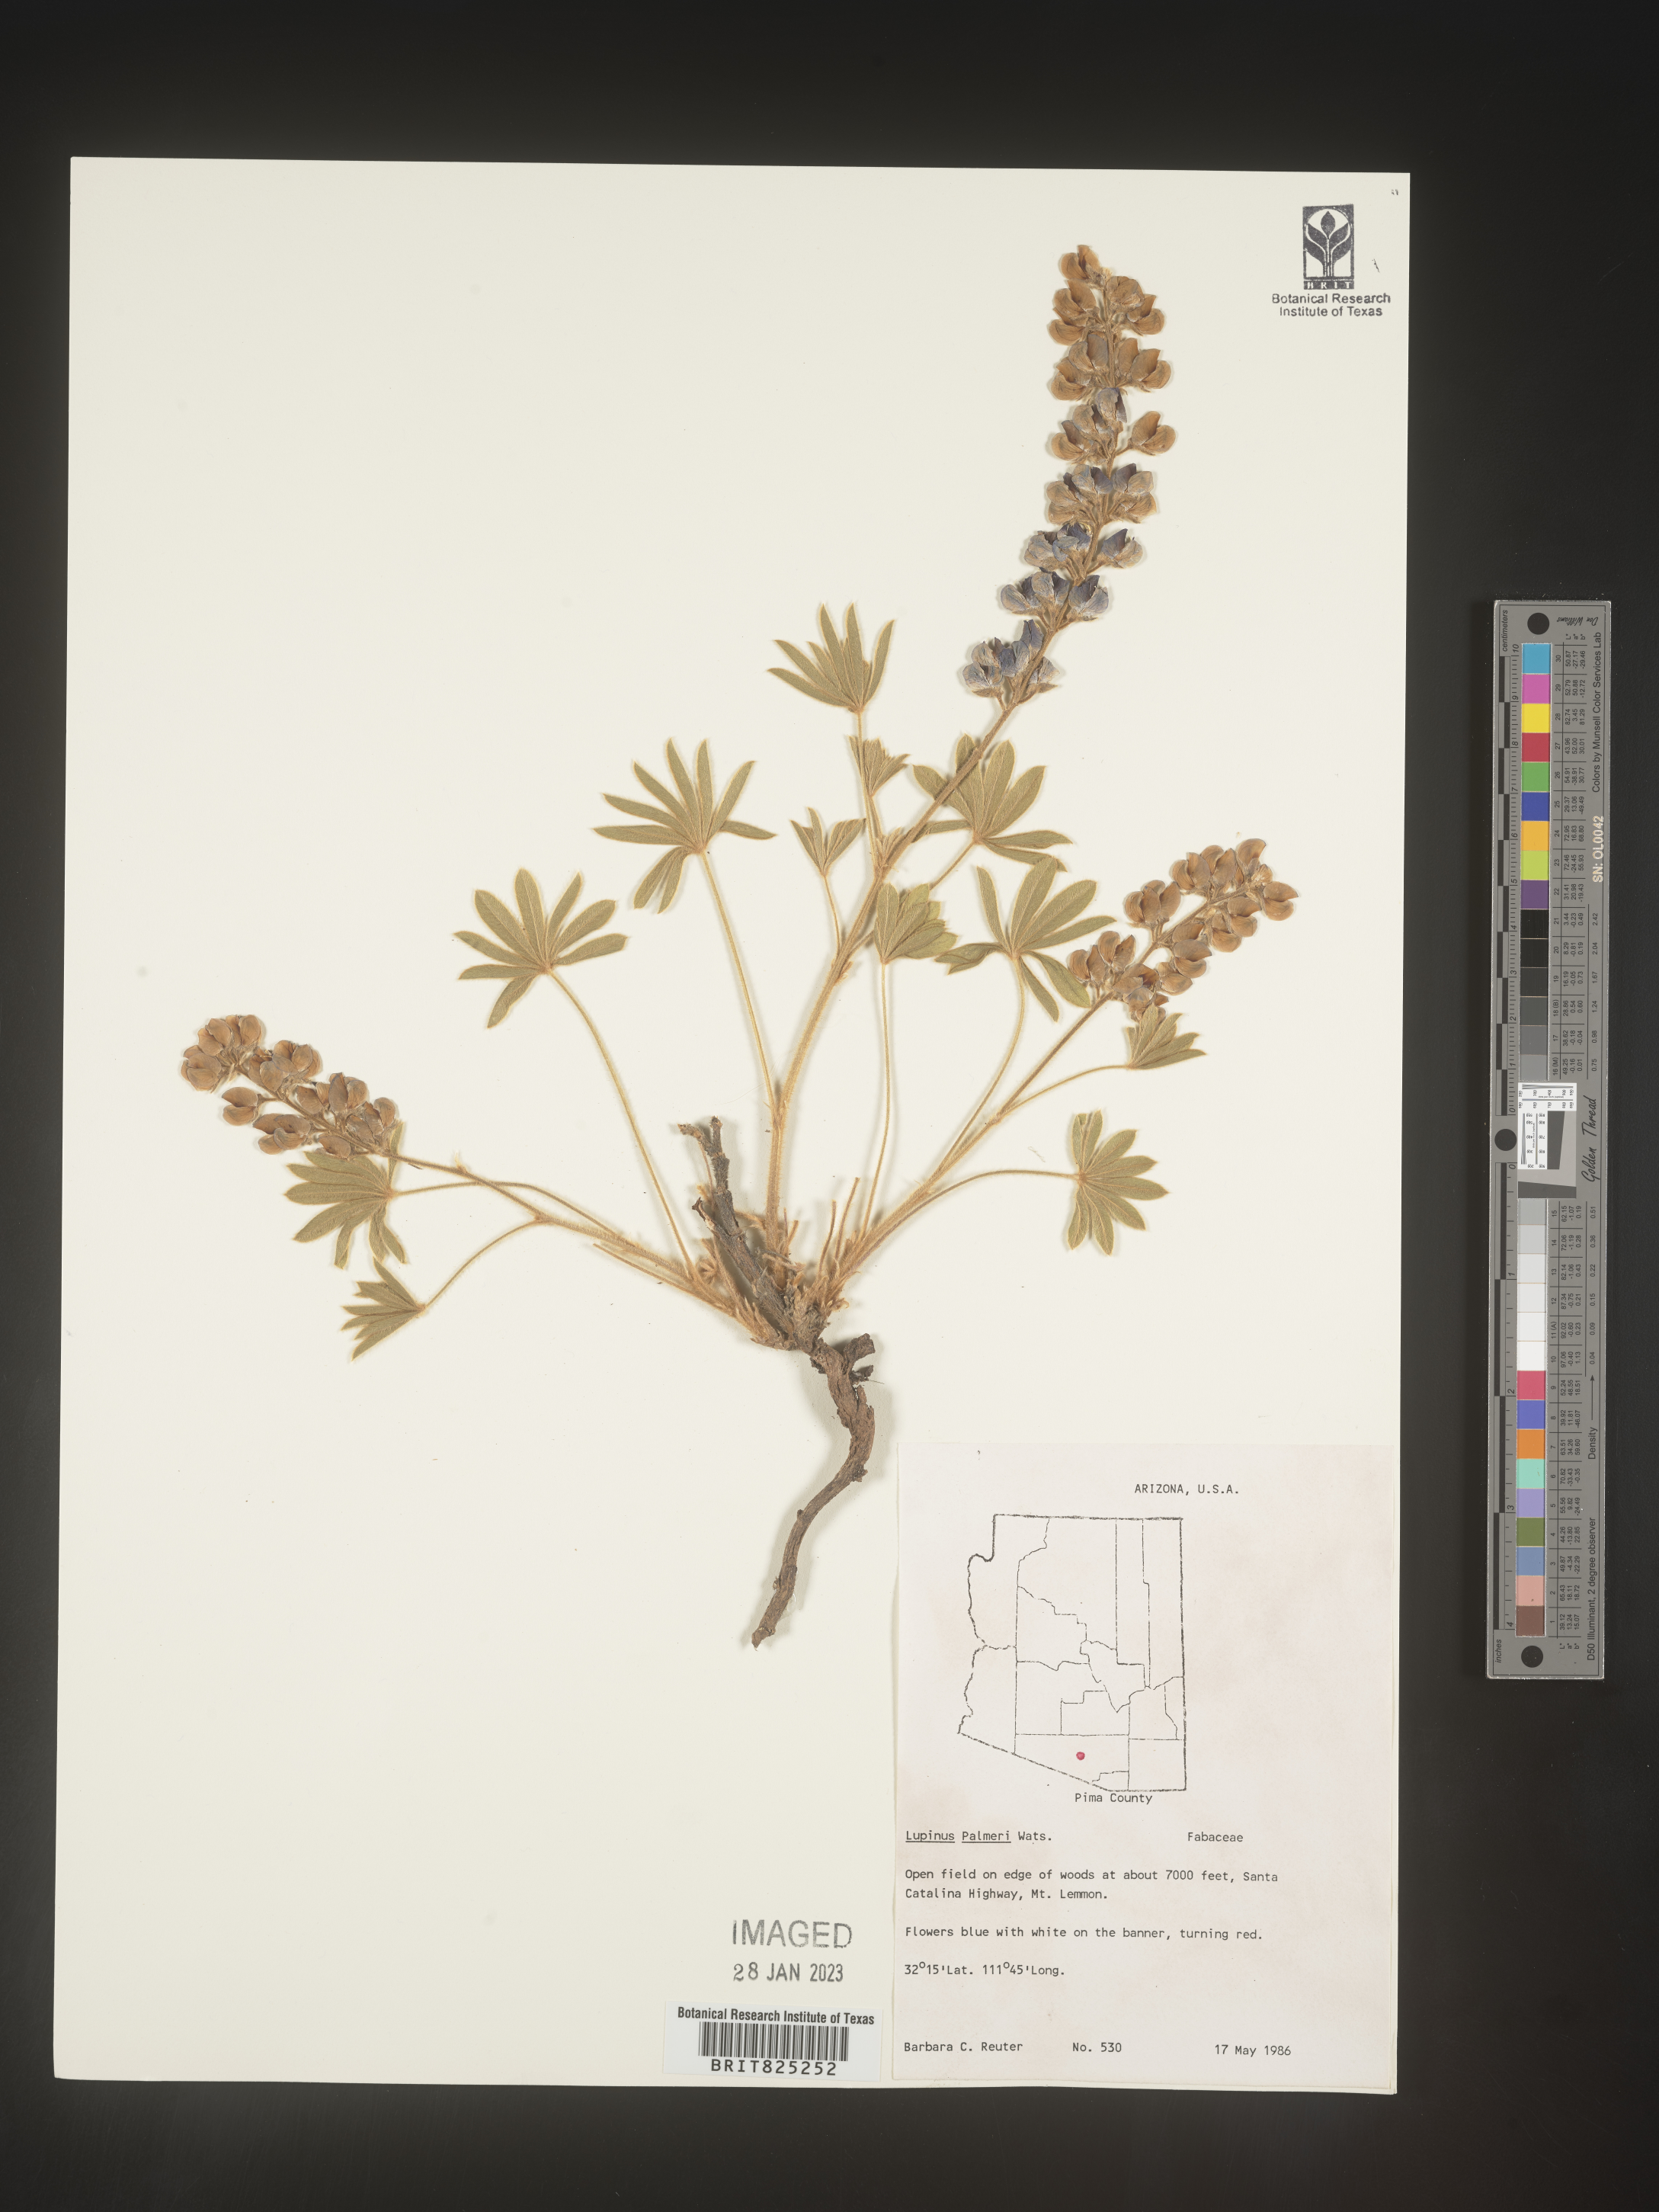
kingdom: Plantae
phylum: Tracheophyta
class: Magnoliopsida
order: Fabales
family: Fabaceae
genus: Lupinus
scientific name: Lupinus
